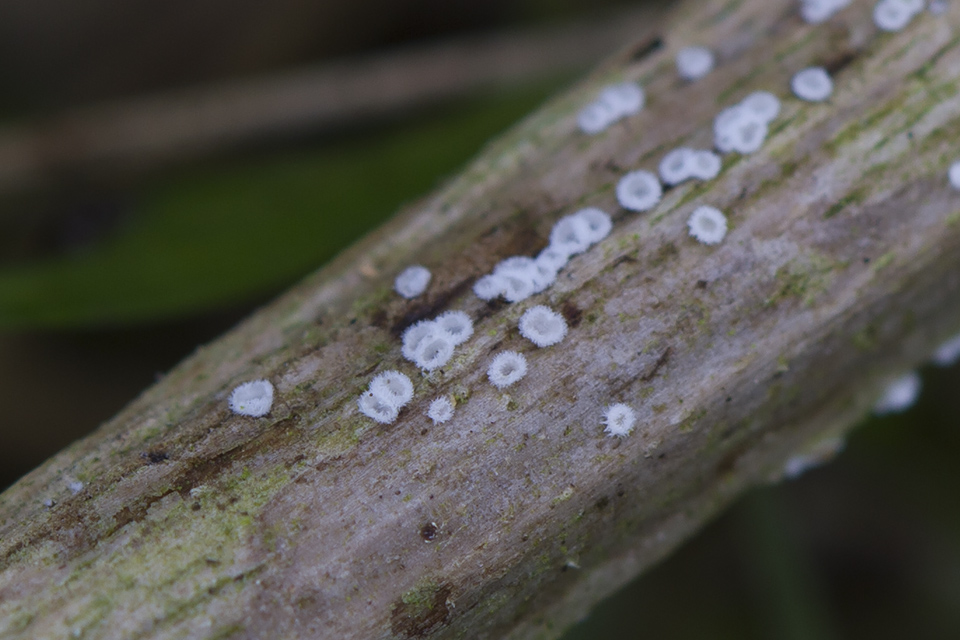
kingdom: Fungi
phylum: Basidiomycota
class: Agaricomycetes
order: Agaricales
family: Niaceae
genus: Lachnella
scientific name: Lachnella villosa
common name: hvid frynserede
